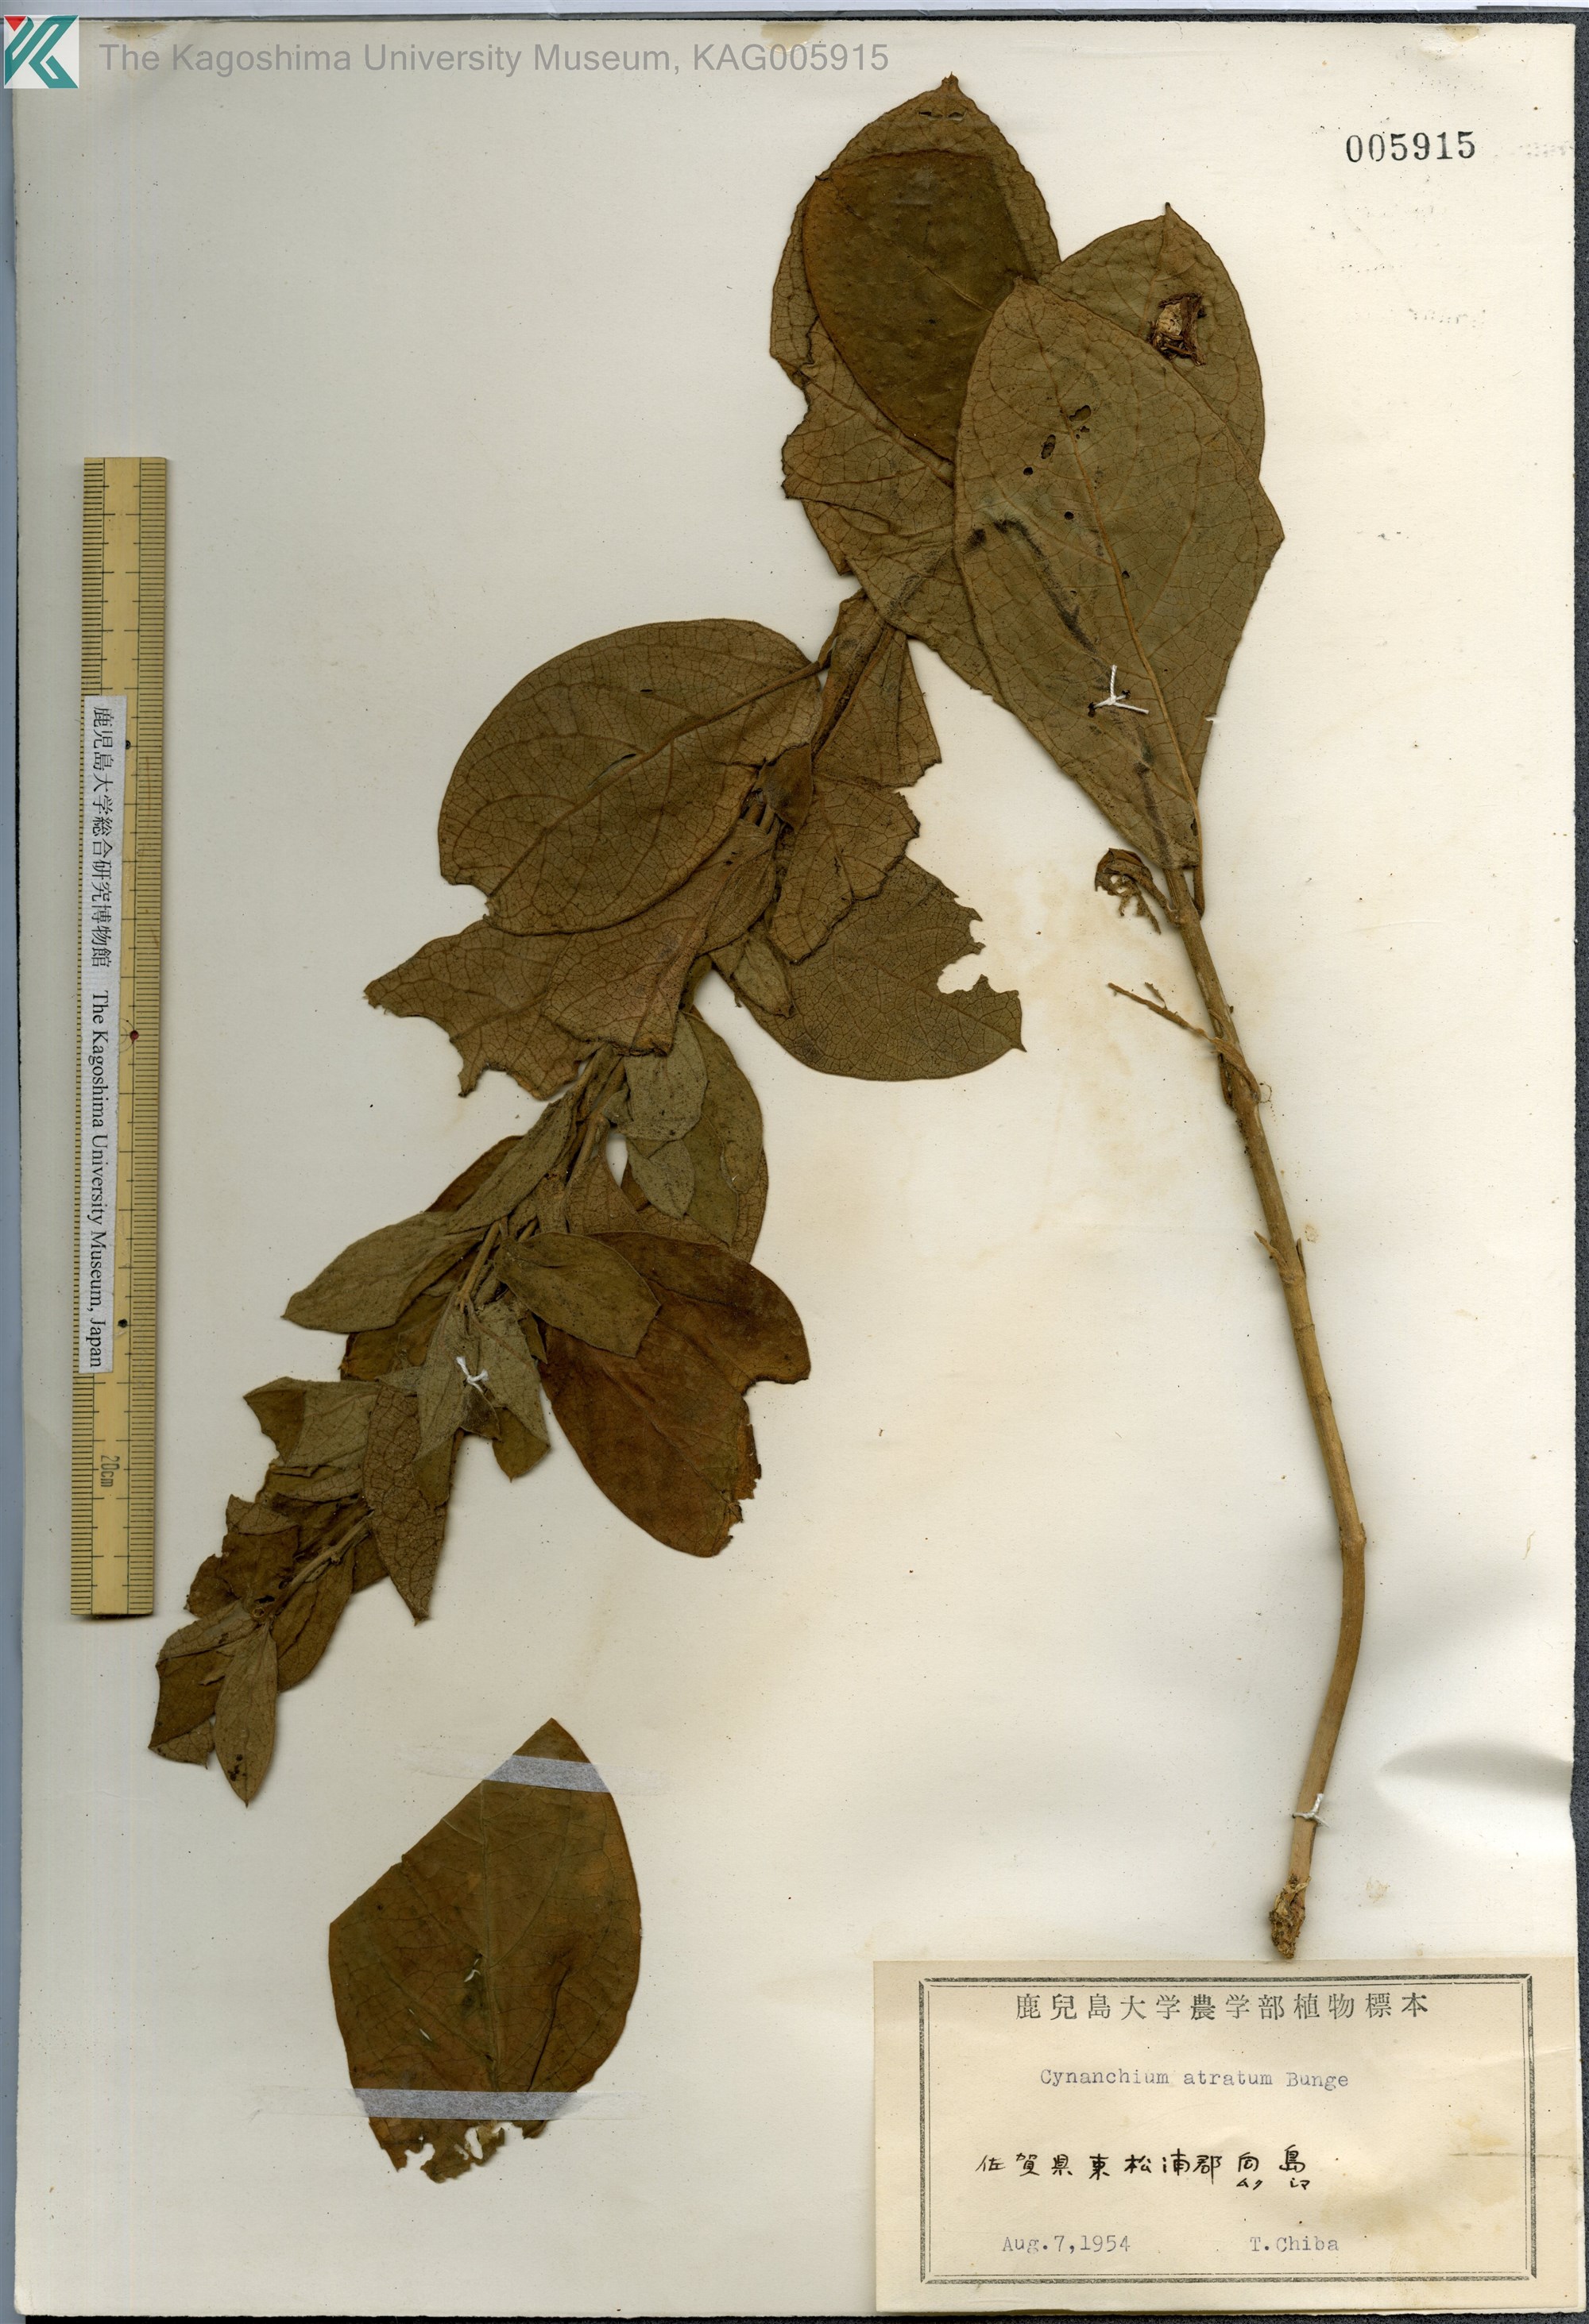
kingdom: Plantae
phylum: Tracheophyta
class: Magnoliopsida
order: Gentianales
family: Apocynaceae
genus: Vincetoxicum
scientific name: Vincetoxicum atratum
